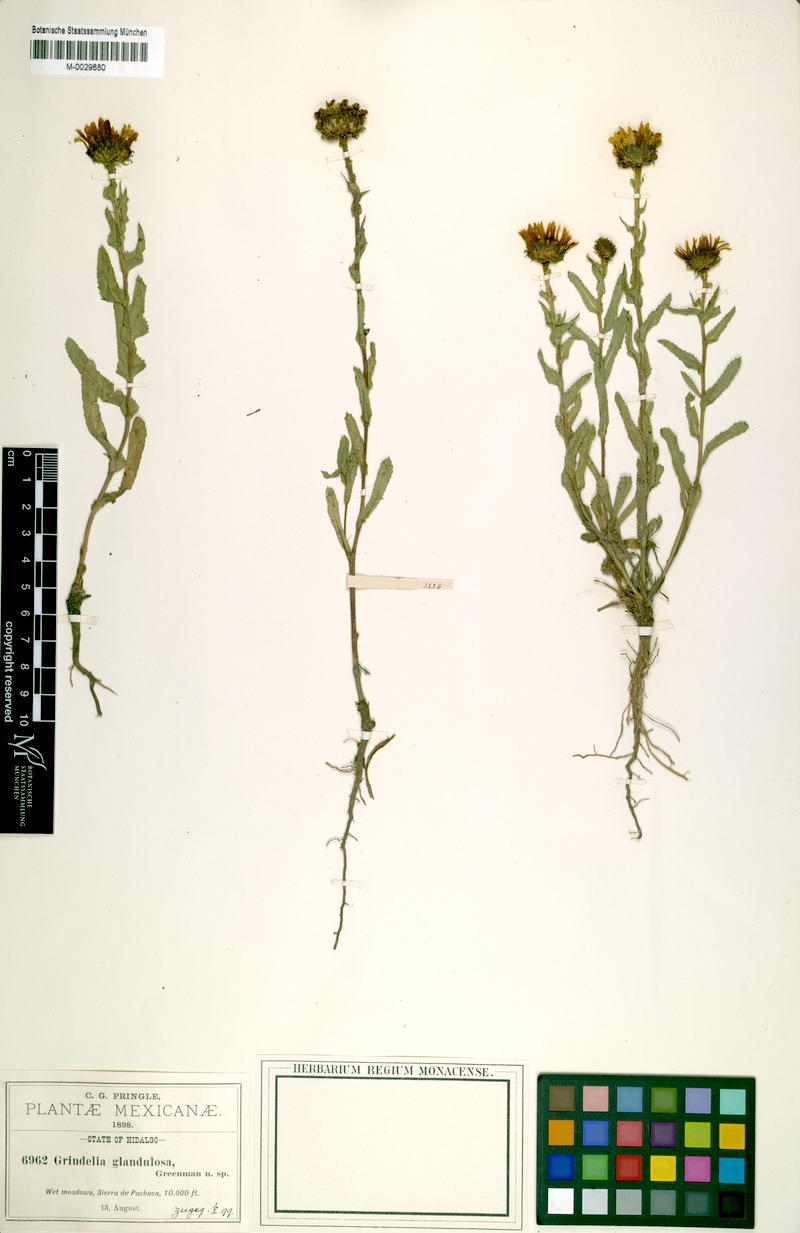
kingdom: Plantae
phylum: Tracheophyta
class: Magnoliopsida
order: Asterales
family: Asteraceae
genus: Grindelia
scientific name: Grindelia inuloides
